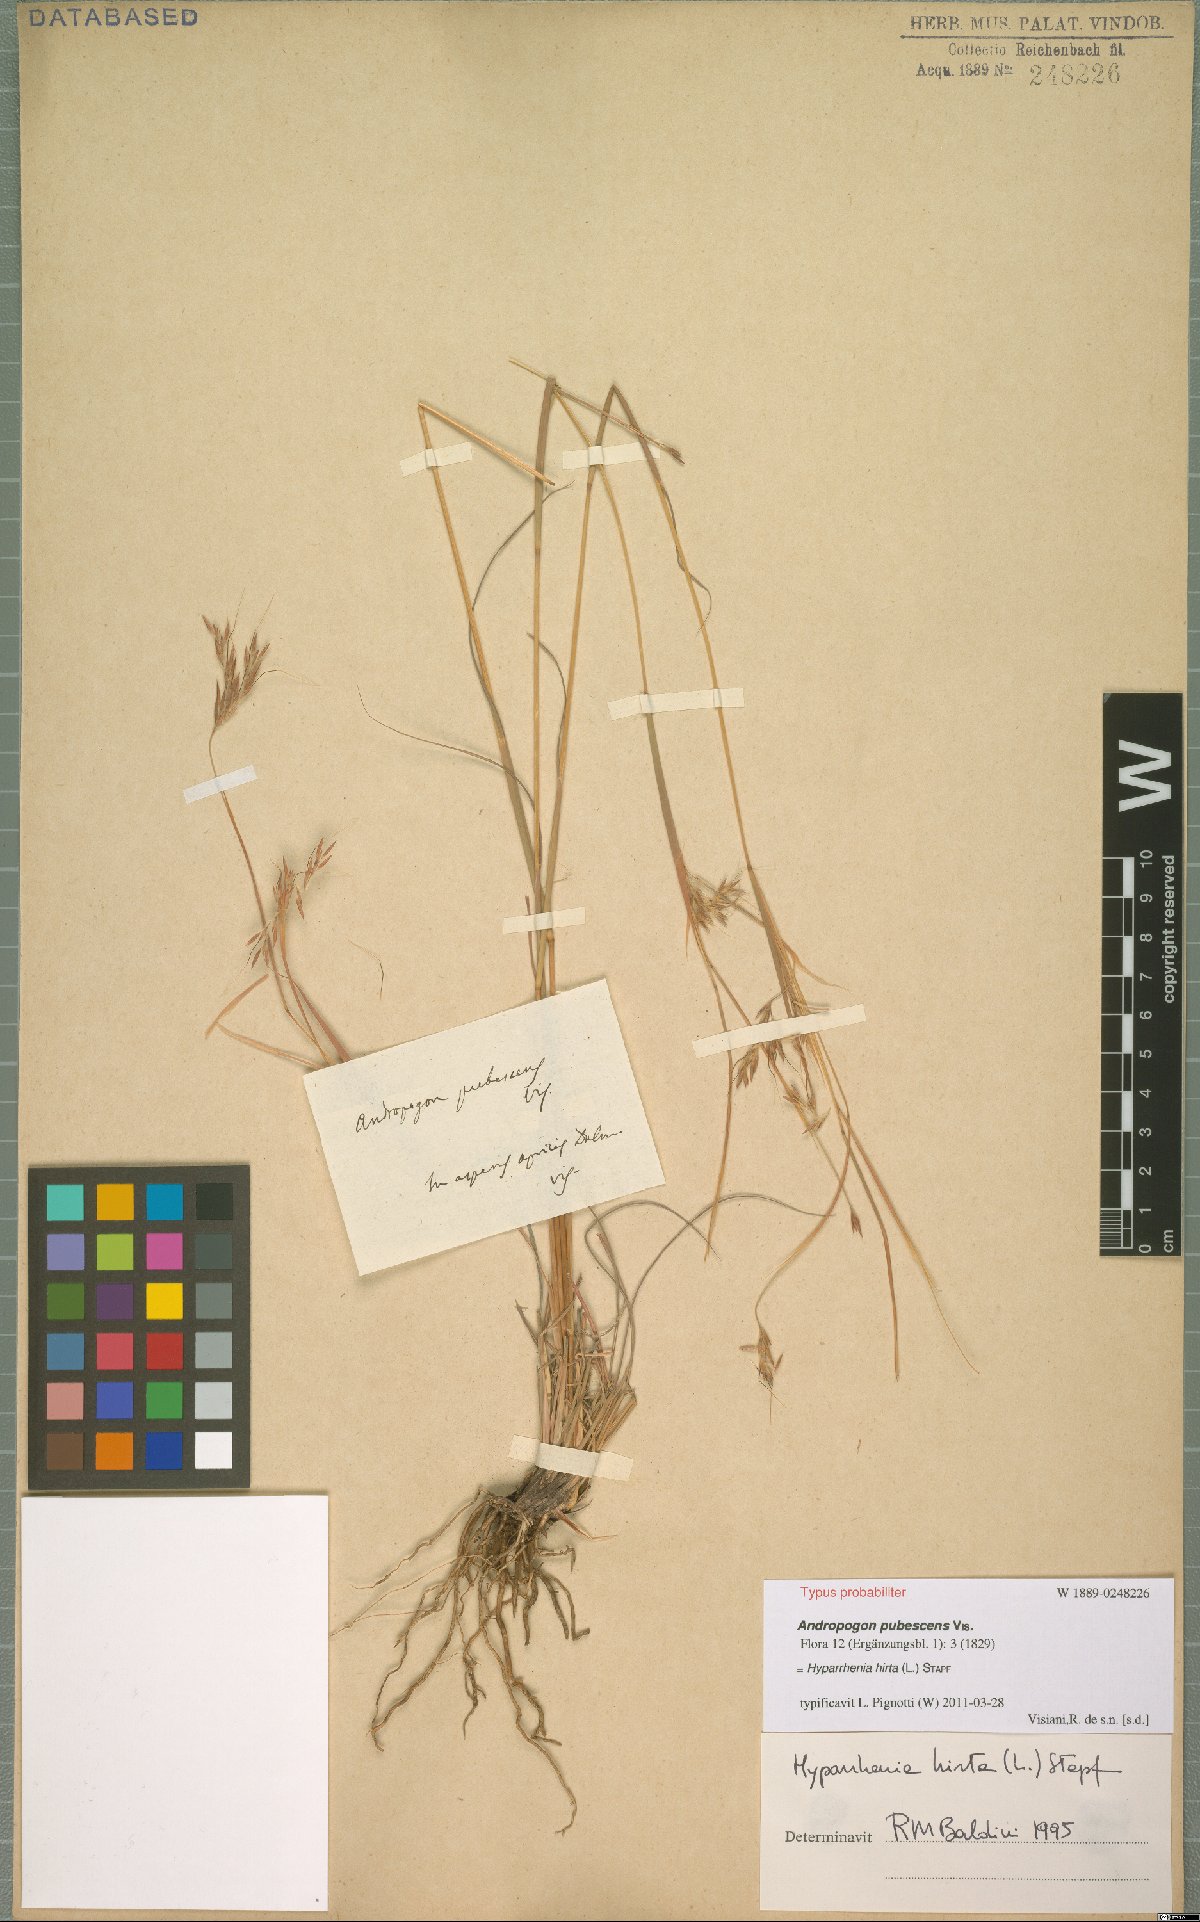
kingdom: Plantae
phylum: Tracheophyta
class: Liliopsida
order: Poales
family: Poaceae
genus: Hyparrhenia
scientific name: Hyparrhenia hirta
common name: Thatching grass
